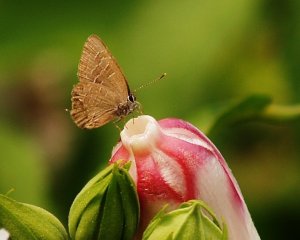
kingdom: Animalia
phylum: Arthropoda
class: Insecta
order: Lepidoptera
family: Lycaenidae
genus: Satyrium
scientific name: Satyrium liparops
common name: Striped Hairstreak
